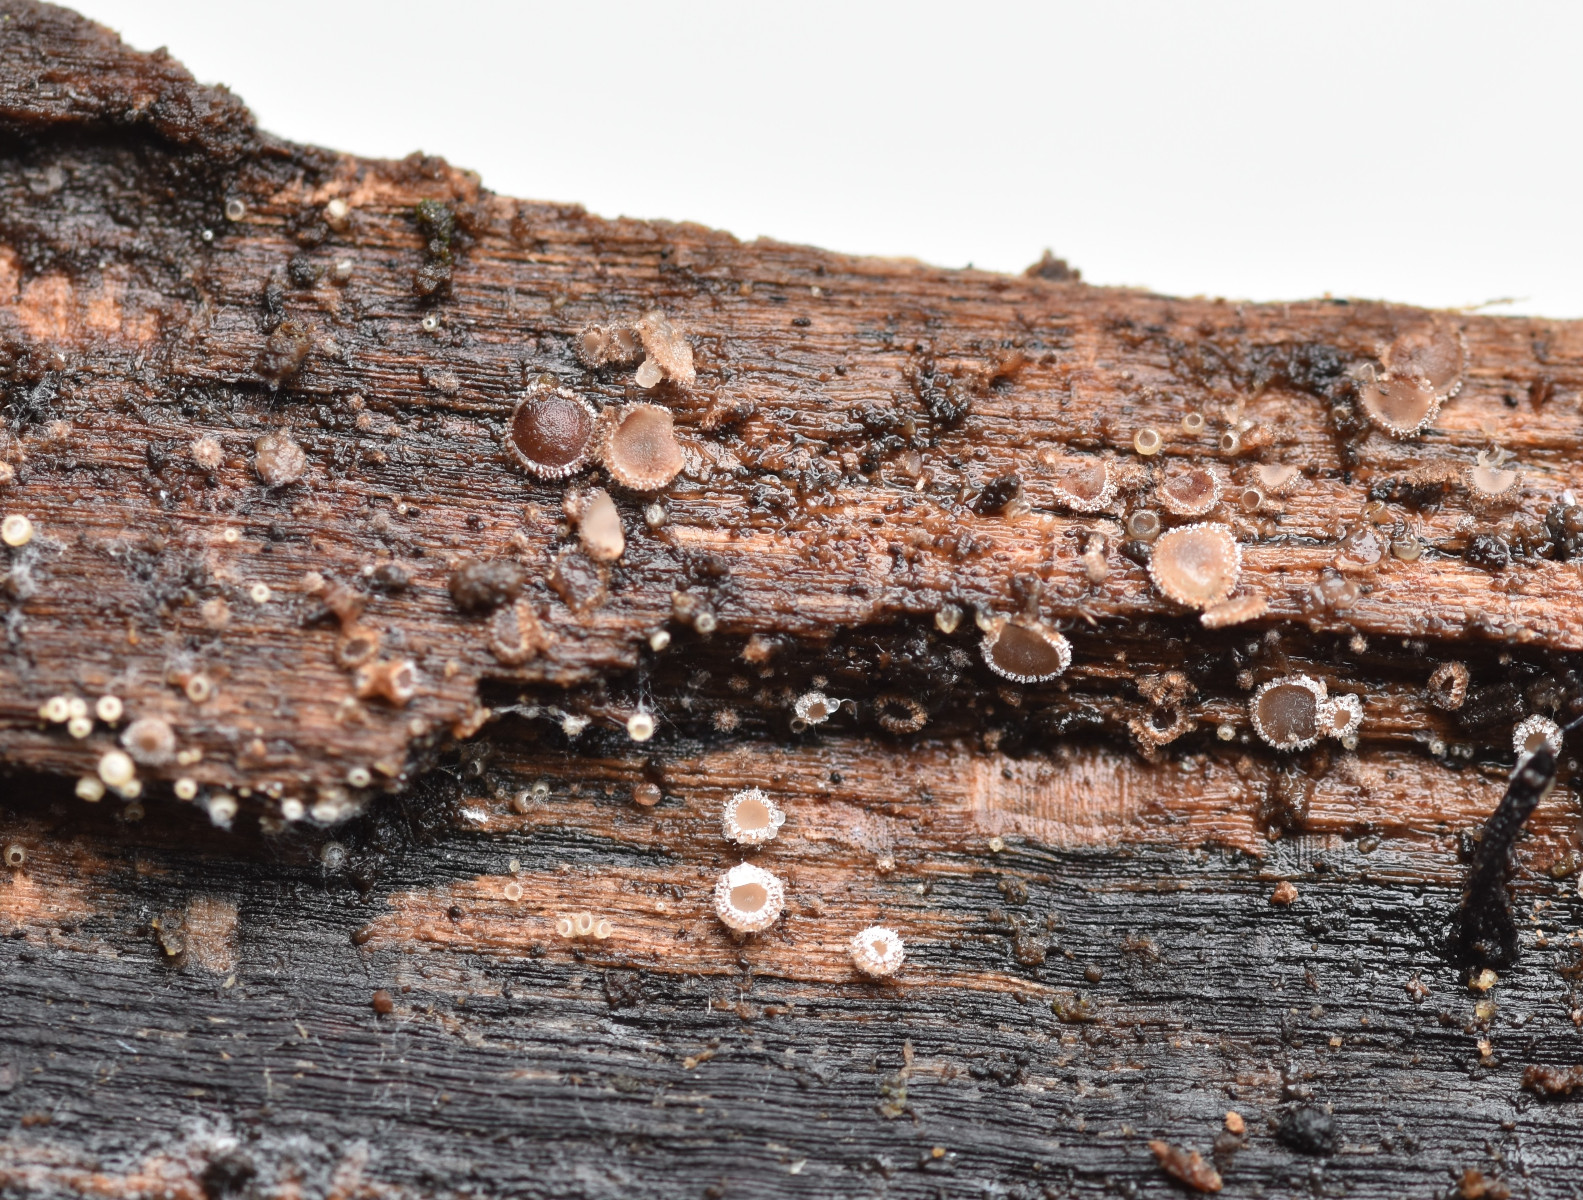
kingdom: Fungi
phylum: Ascomycota
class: Leotiomycetes
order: Helotiales
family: Solenopeziaceae
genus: Lasiobelonium
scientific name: Lasiobelonium variegatum
